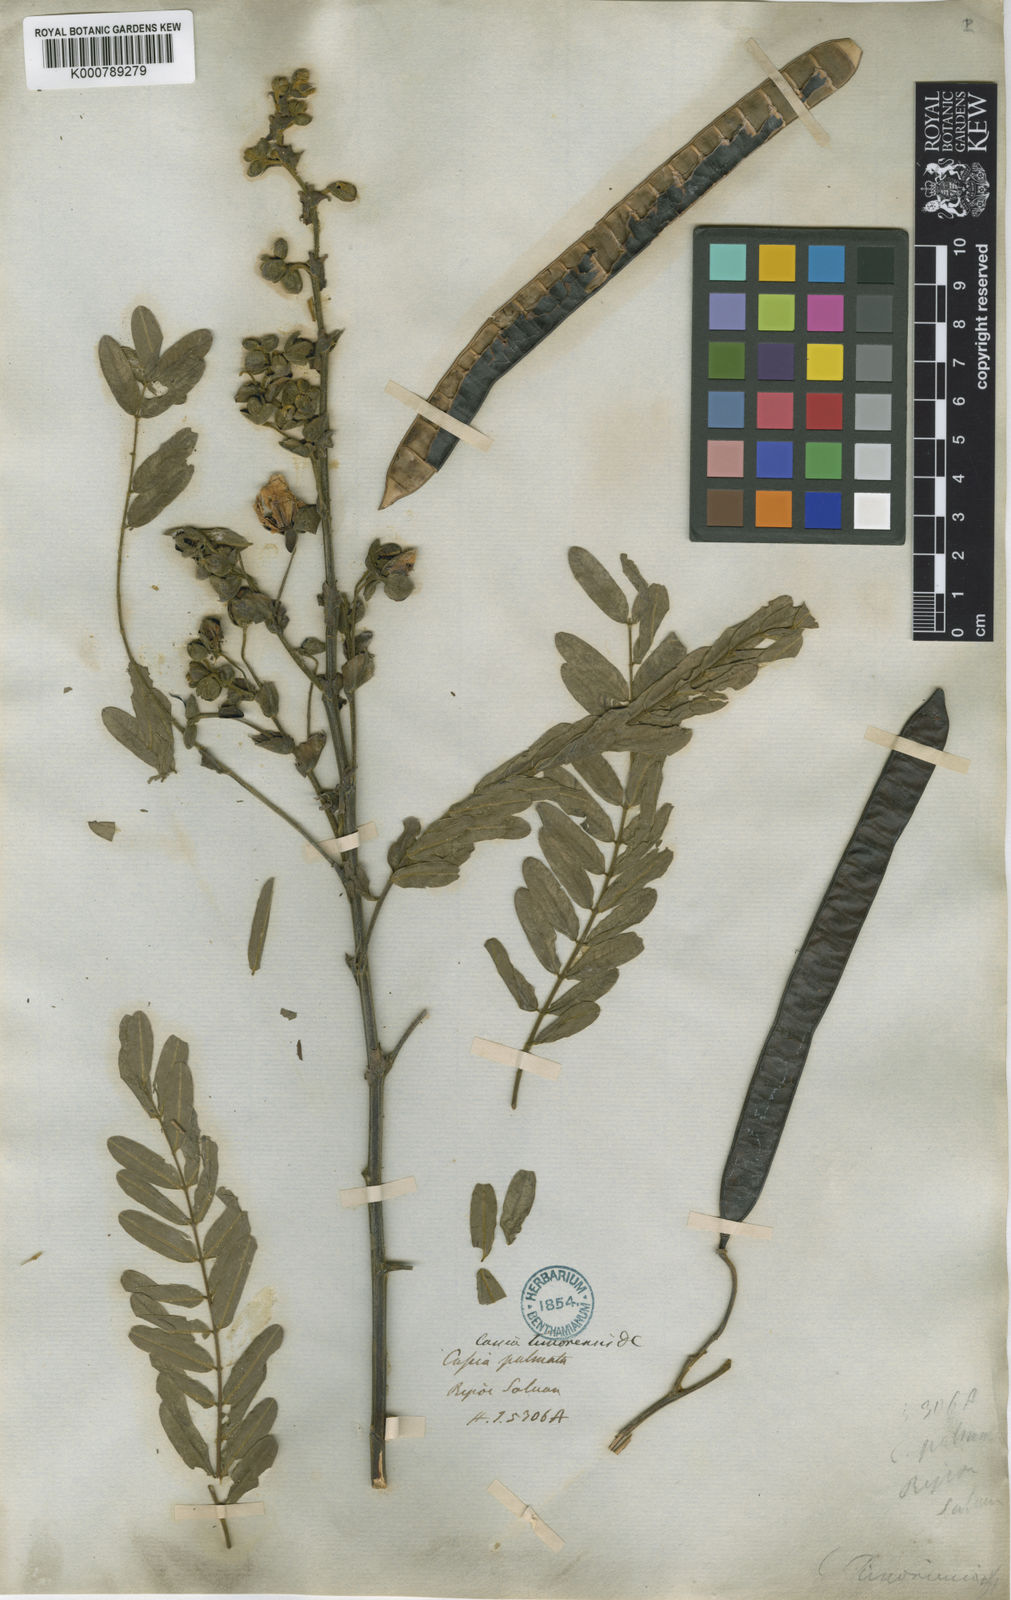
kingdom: Plantae
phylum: Tracheophyta
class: Magnoliopsida
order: Fabales
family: Fabaceae
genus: Senna
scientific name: Senna timoriensis
